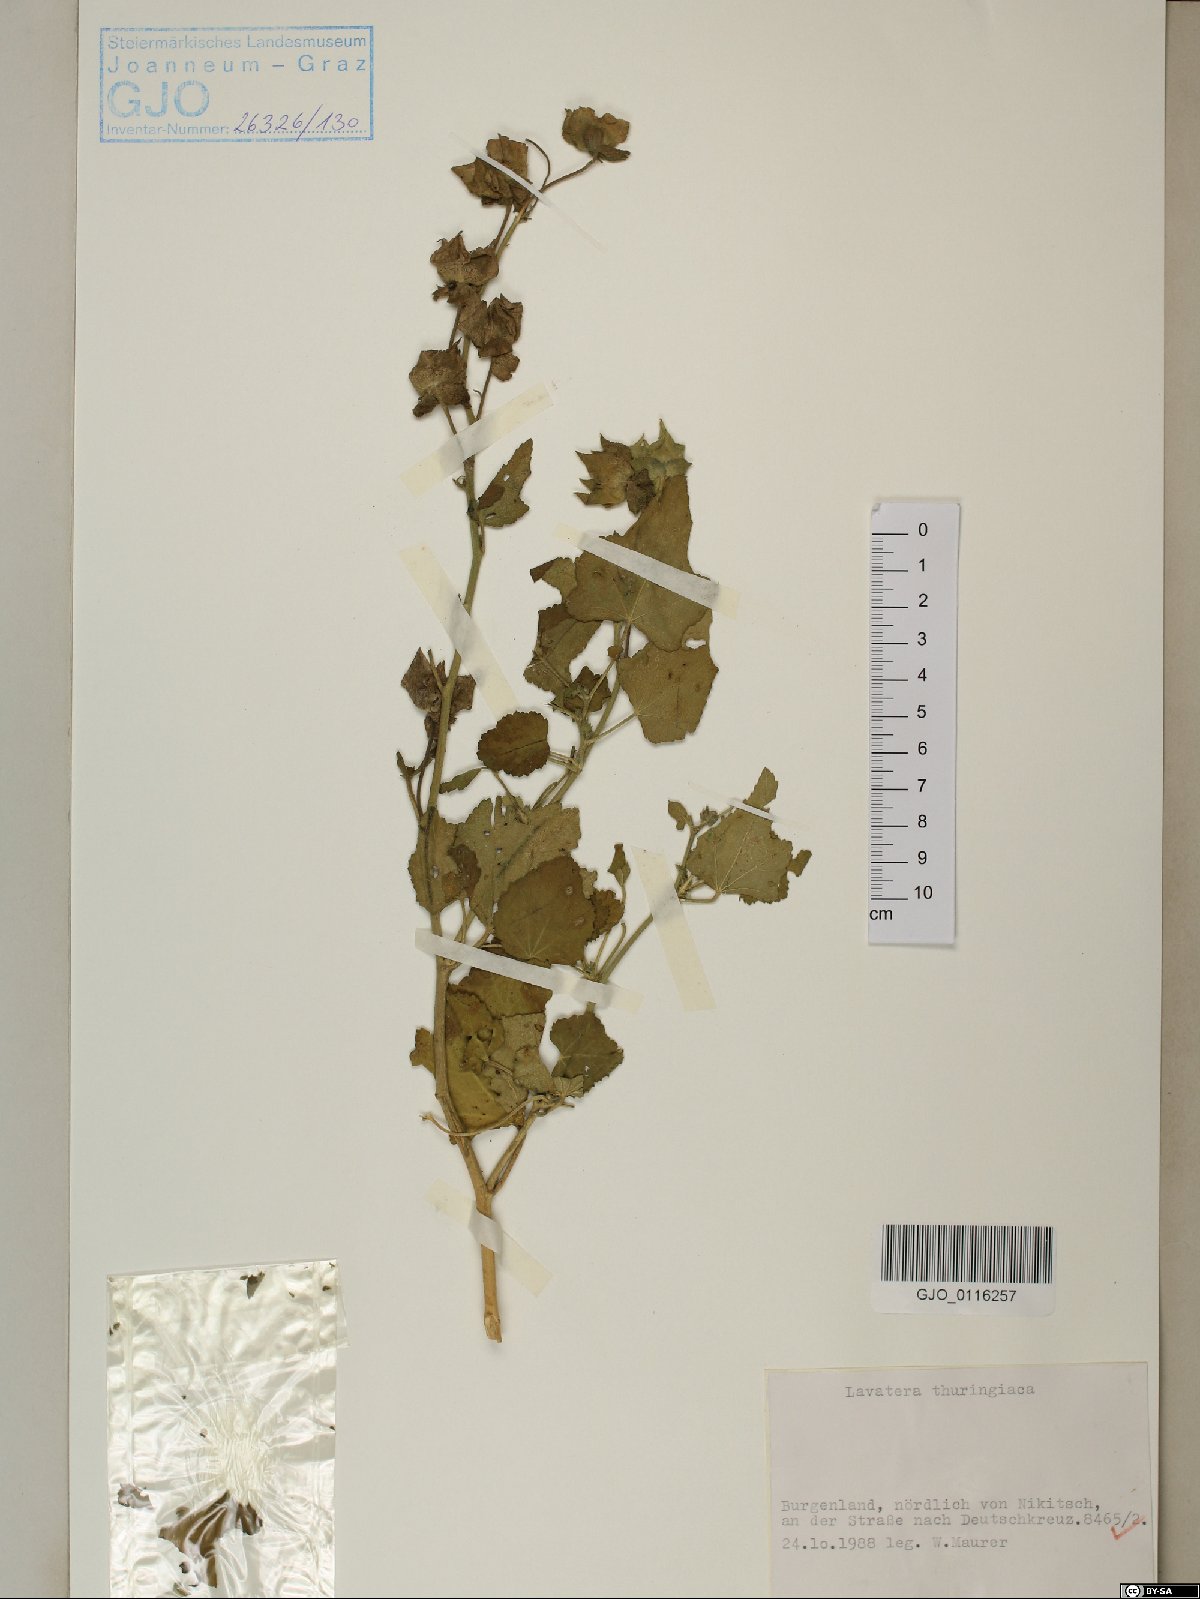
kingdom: Plantae
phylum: Tracheophyta
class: Magnoliopsida
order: Malvales
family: Malvaceae
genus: Malva
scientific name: Malva thuringiaca
